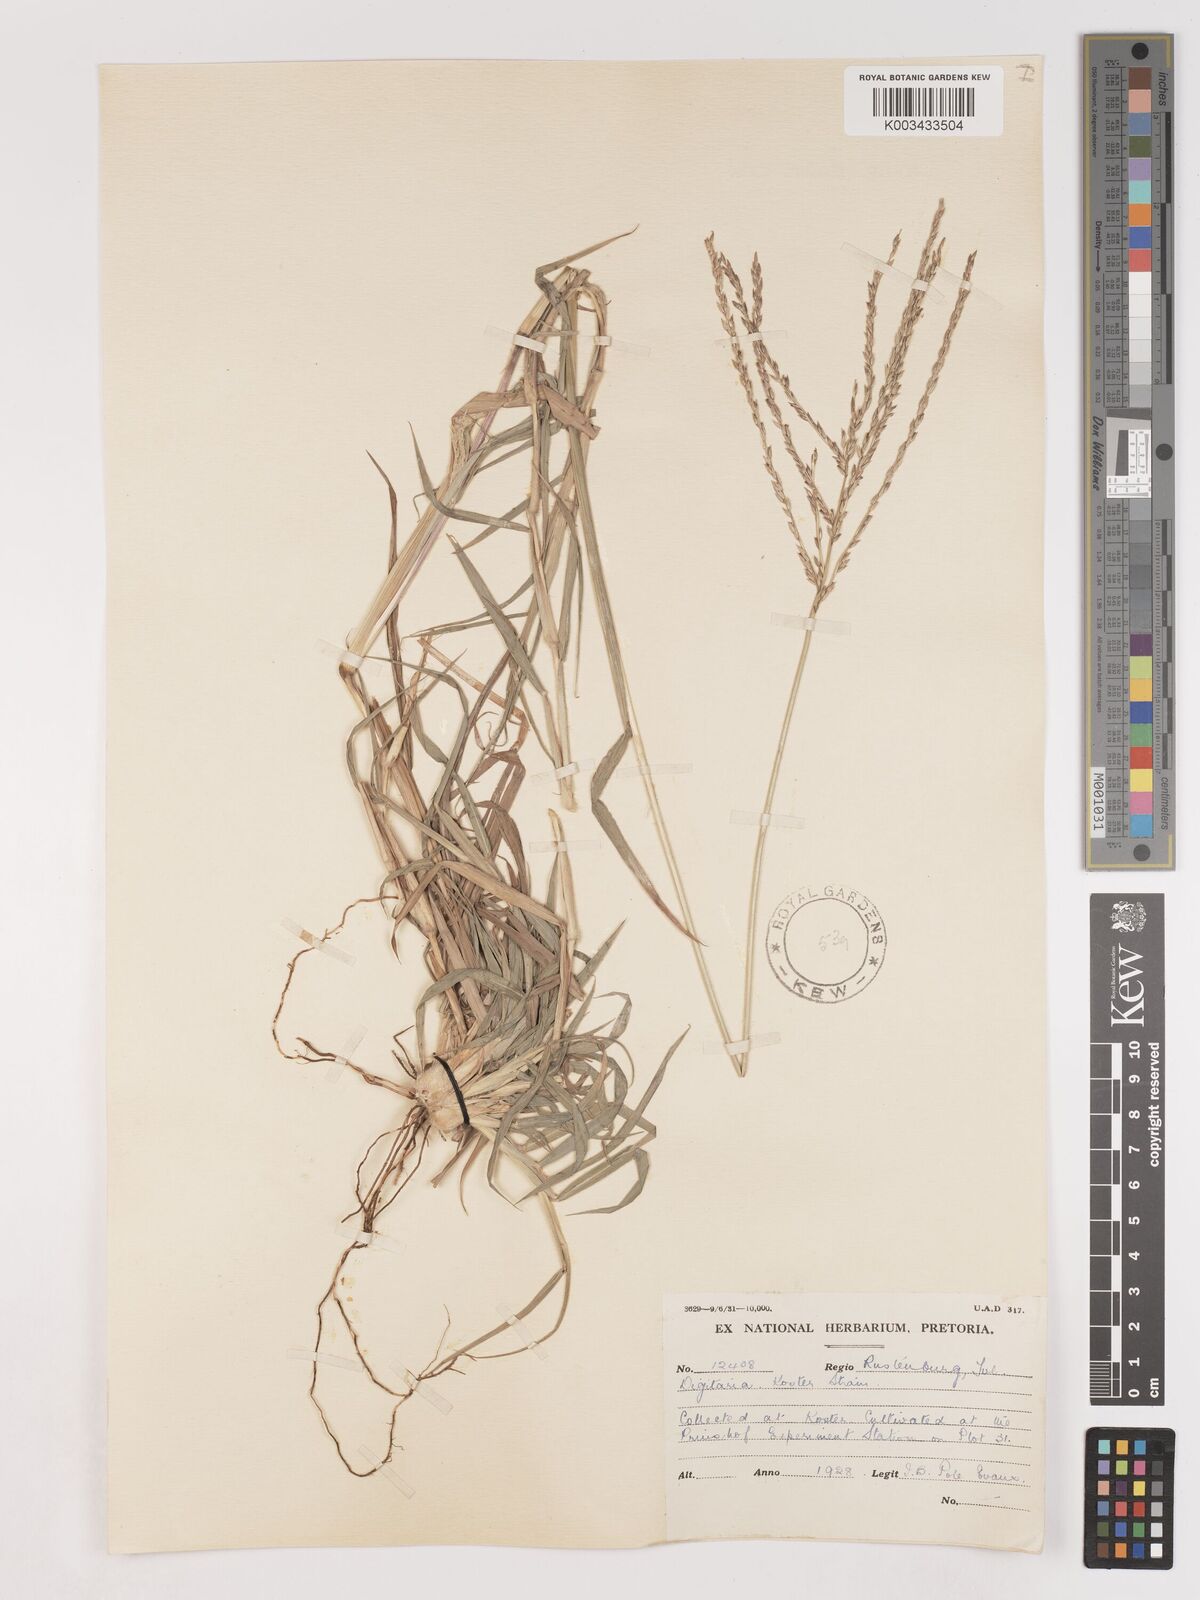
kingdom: Plantae
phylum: Tracheophyta
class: Liliopsida
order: Poales
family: Poaceae
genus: Digitaria
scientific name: Digitaria eriantha
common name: Digitgrass
